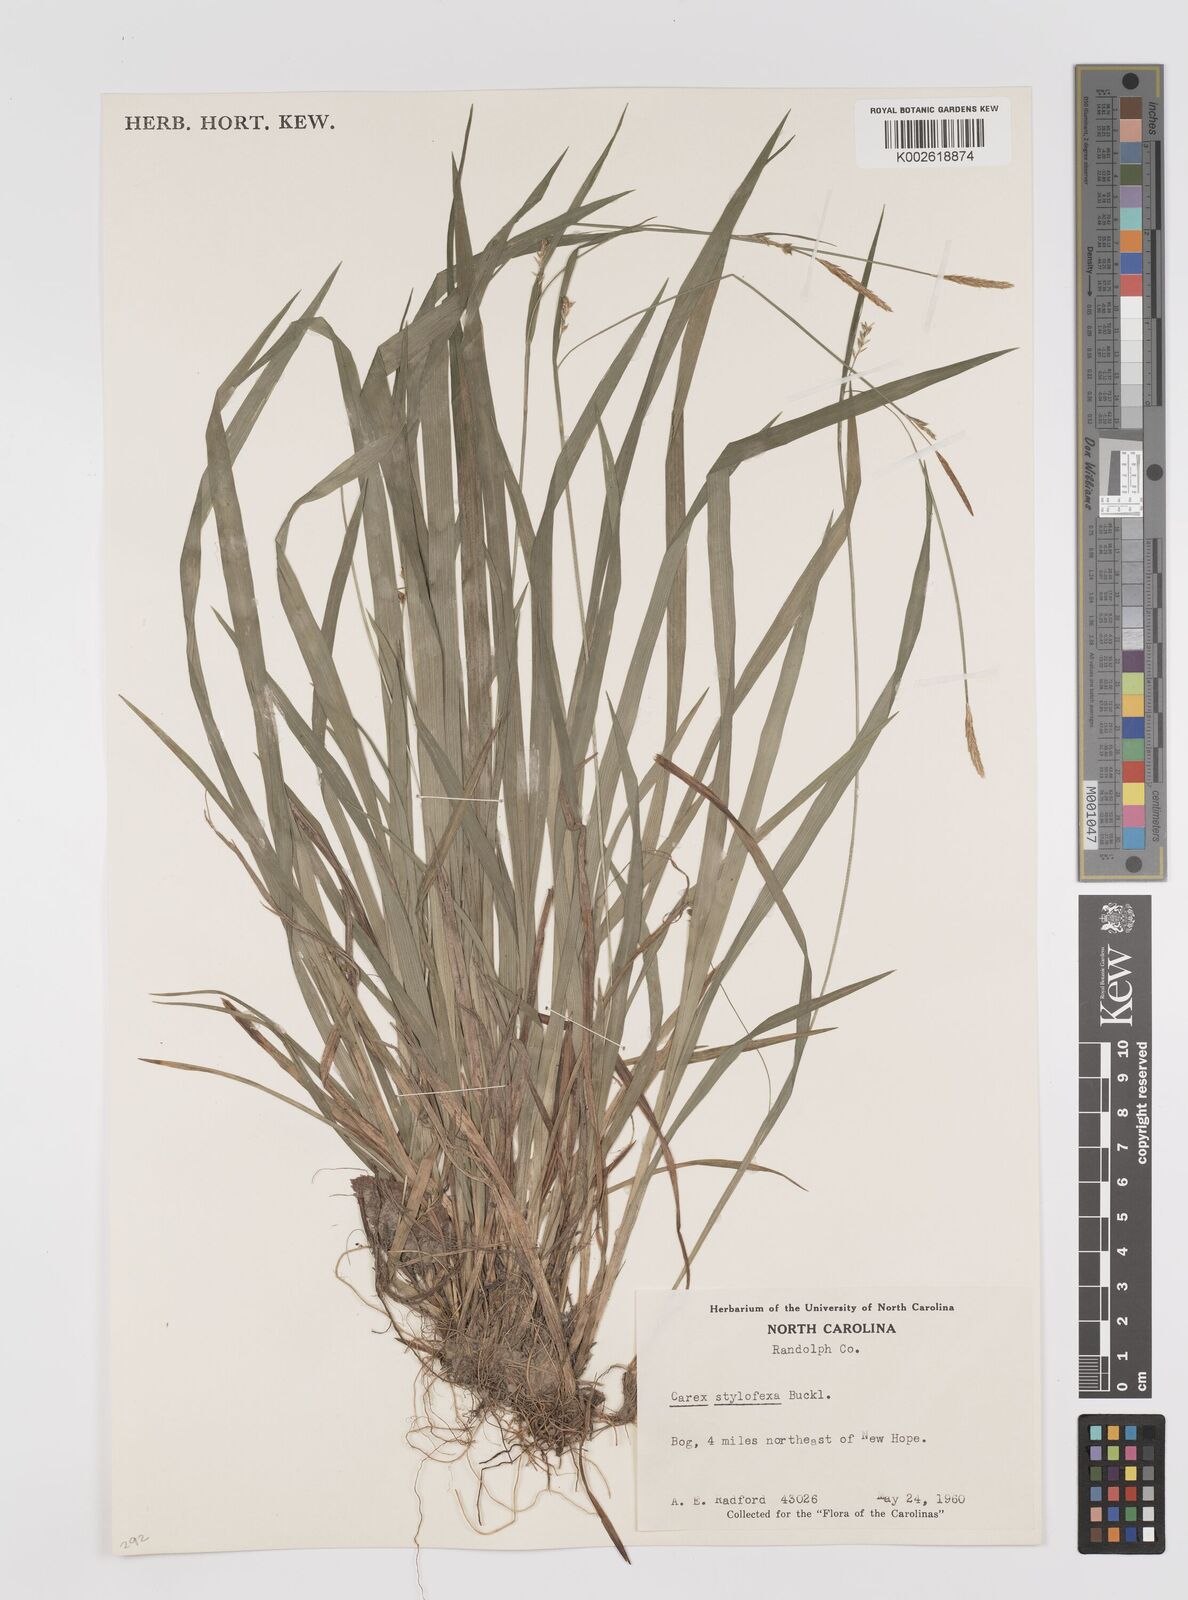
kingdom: Plantae
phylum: Tracheophyta
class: Liliopsida
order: Poales
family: Cyperaceae
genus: Carex
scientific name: Carex styloflexa
